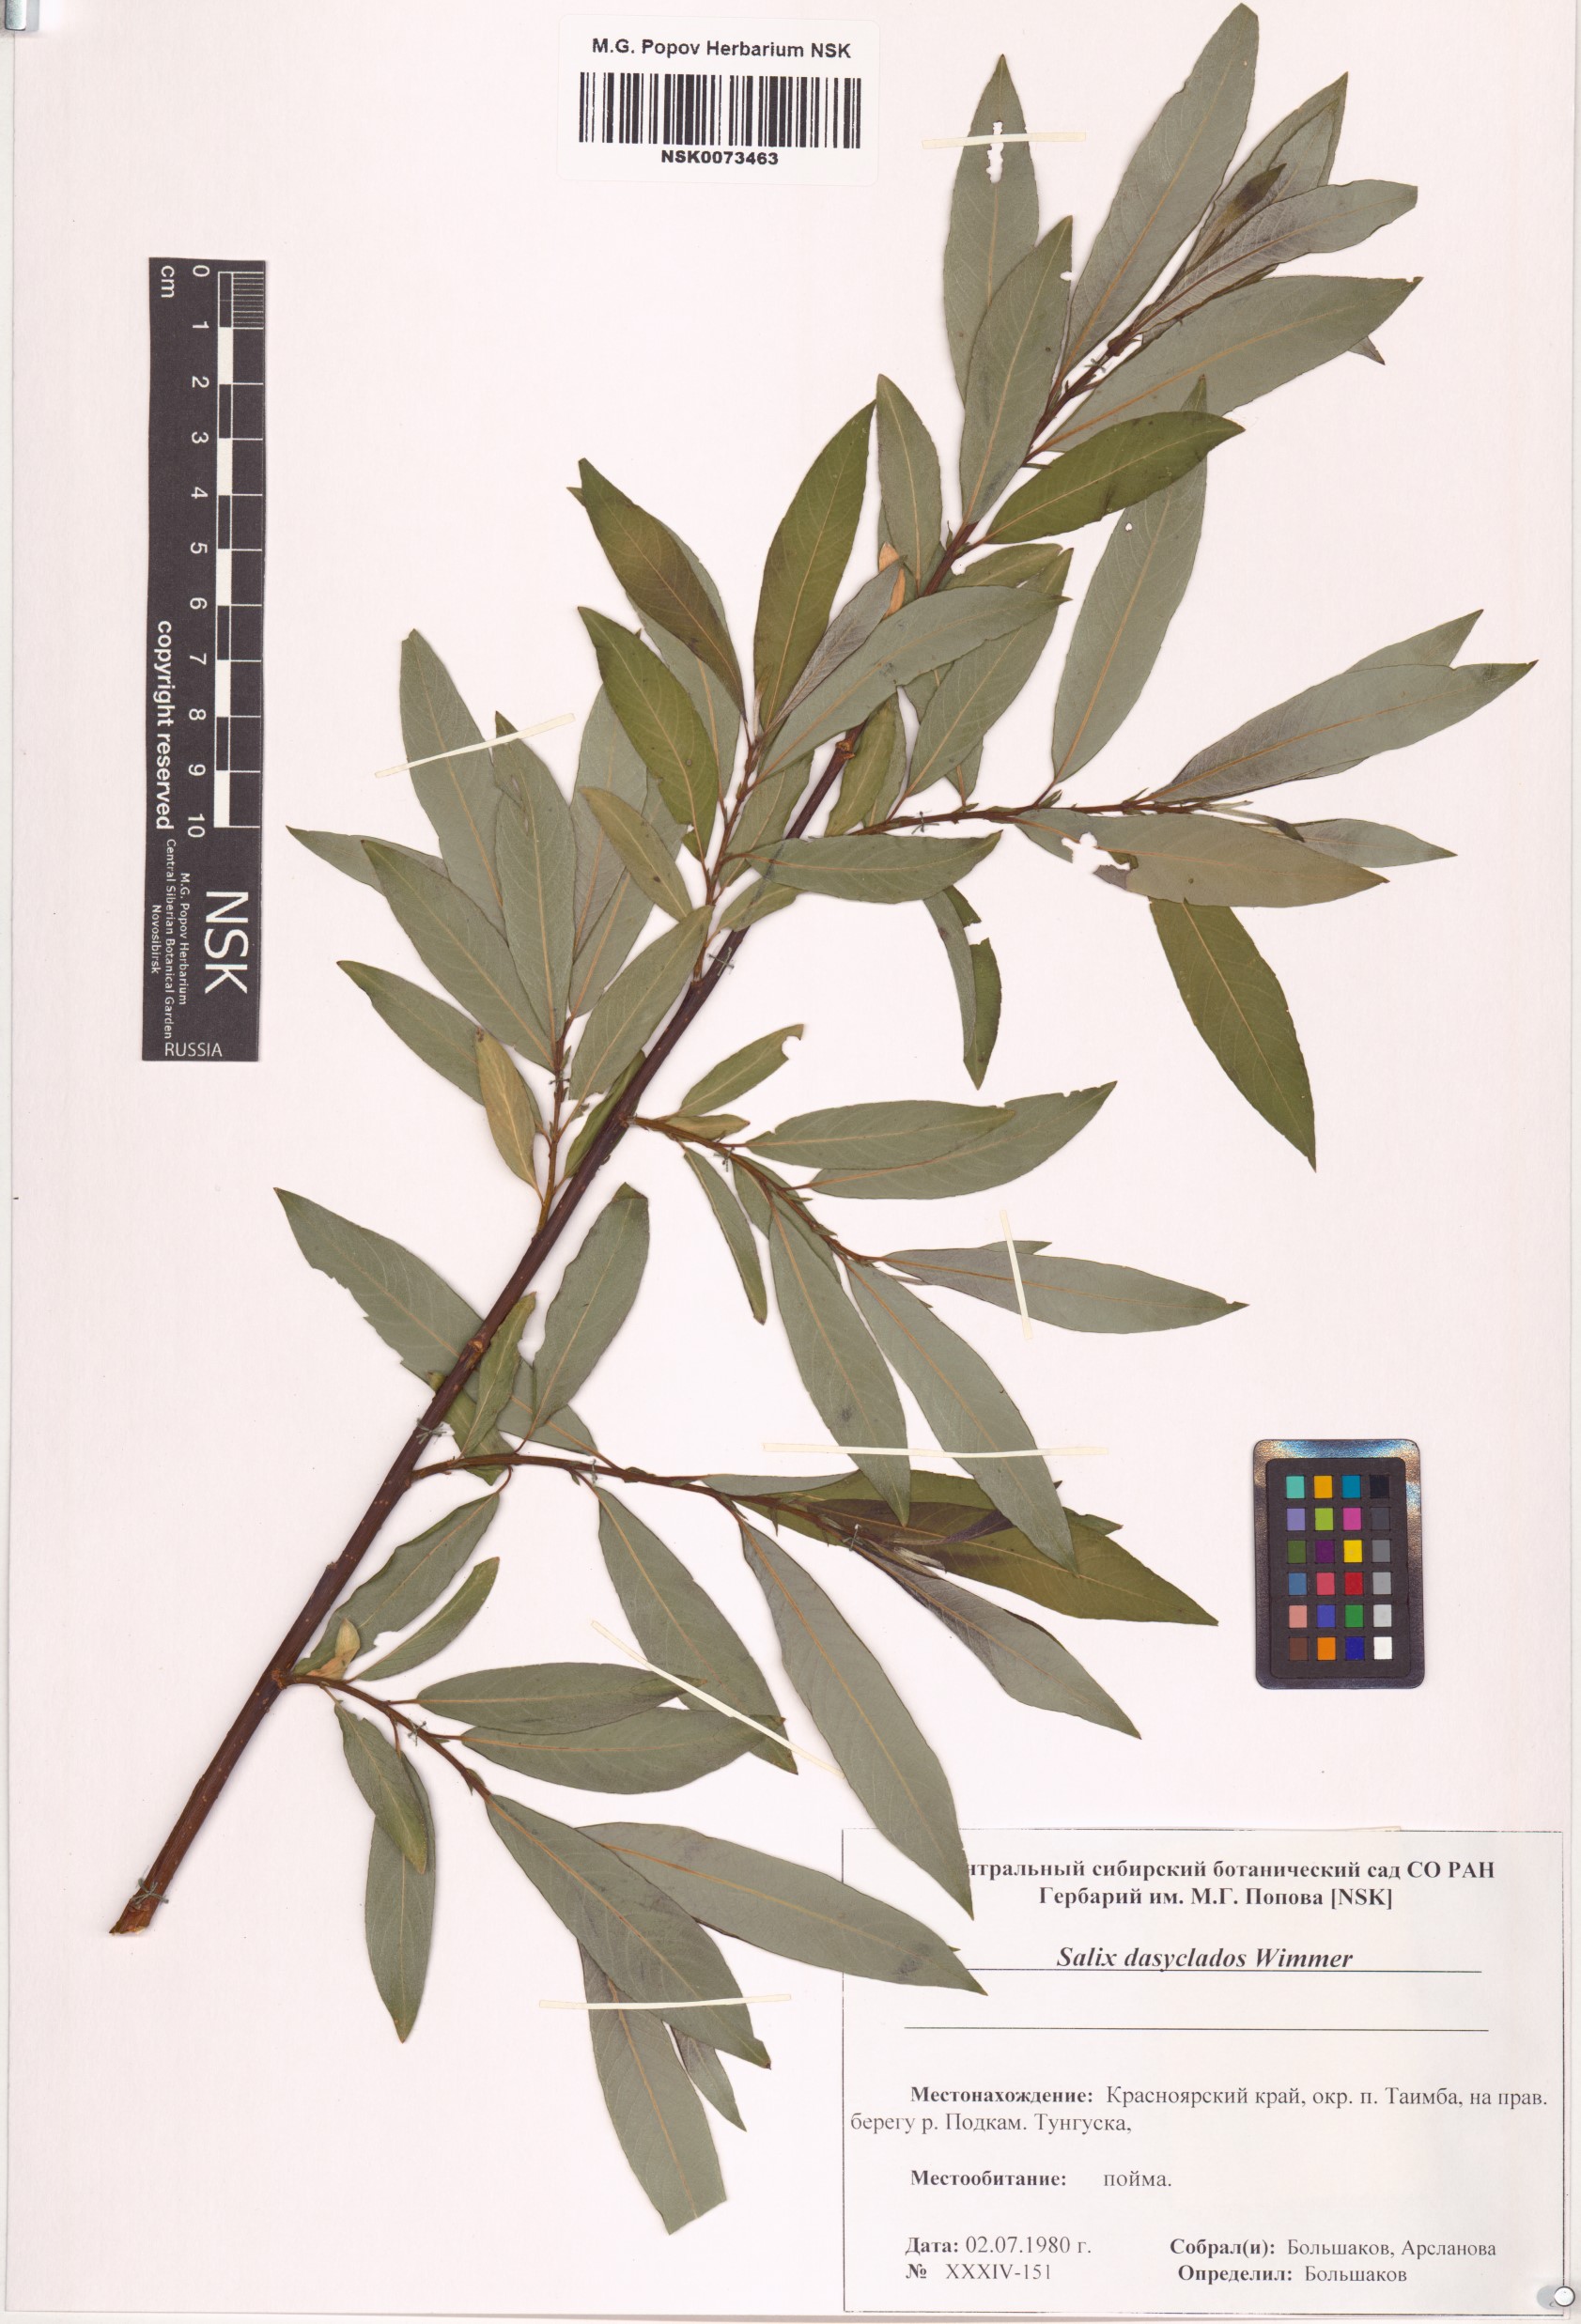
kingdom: Plantae
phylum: Tracheophyta
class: Magnoliopsida
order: Malpighiales
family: Salicaceae
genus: Salix
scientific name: Salix gmelinii
